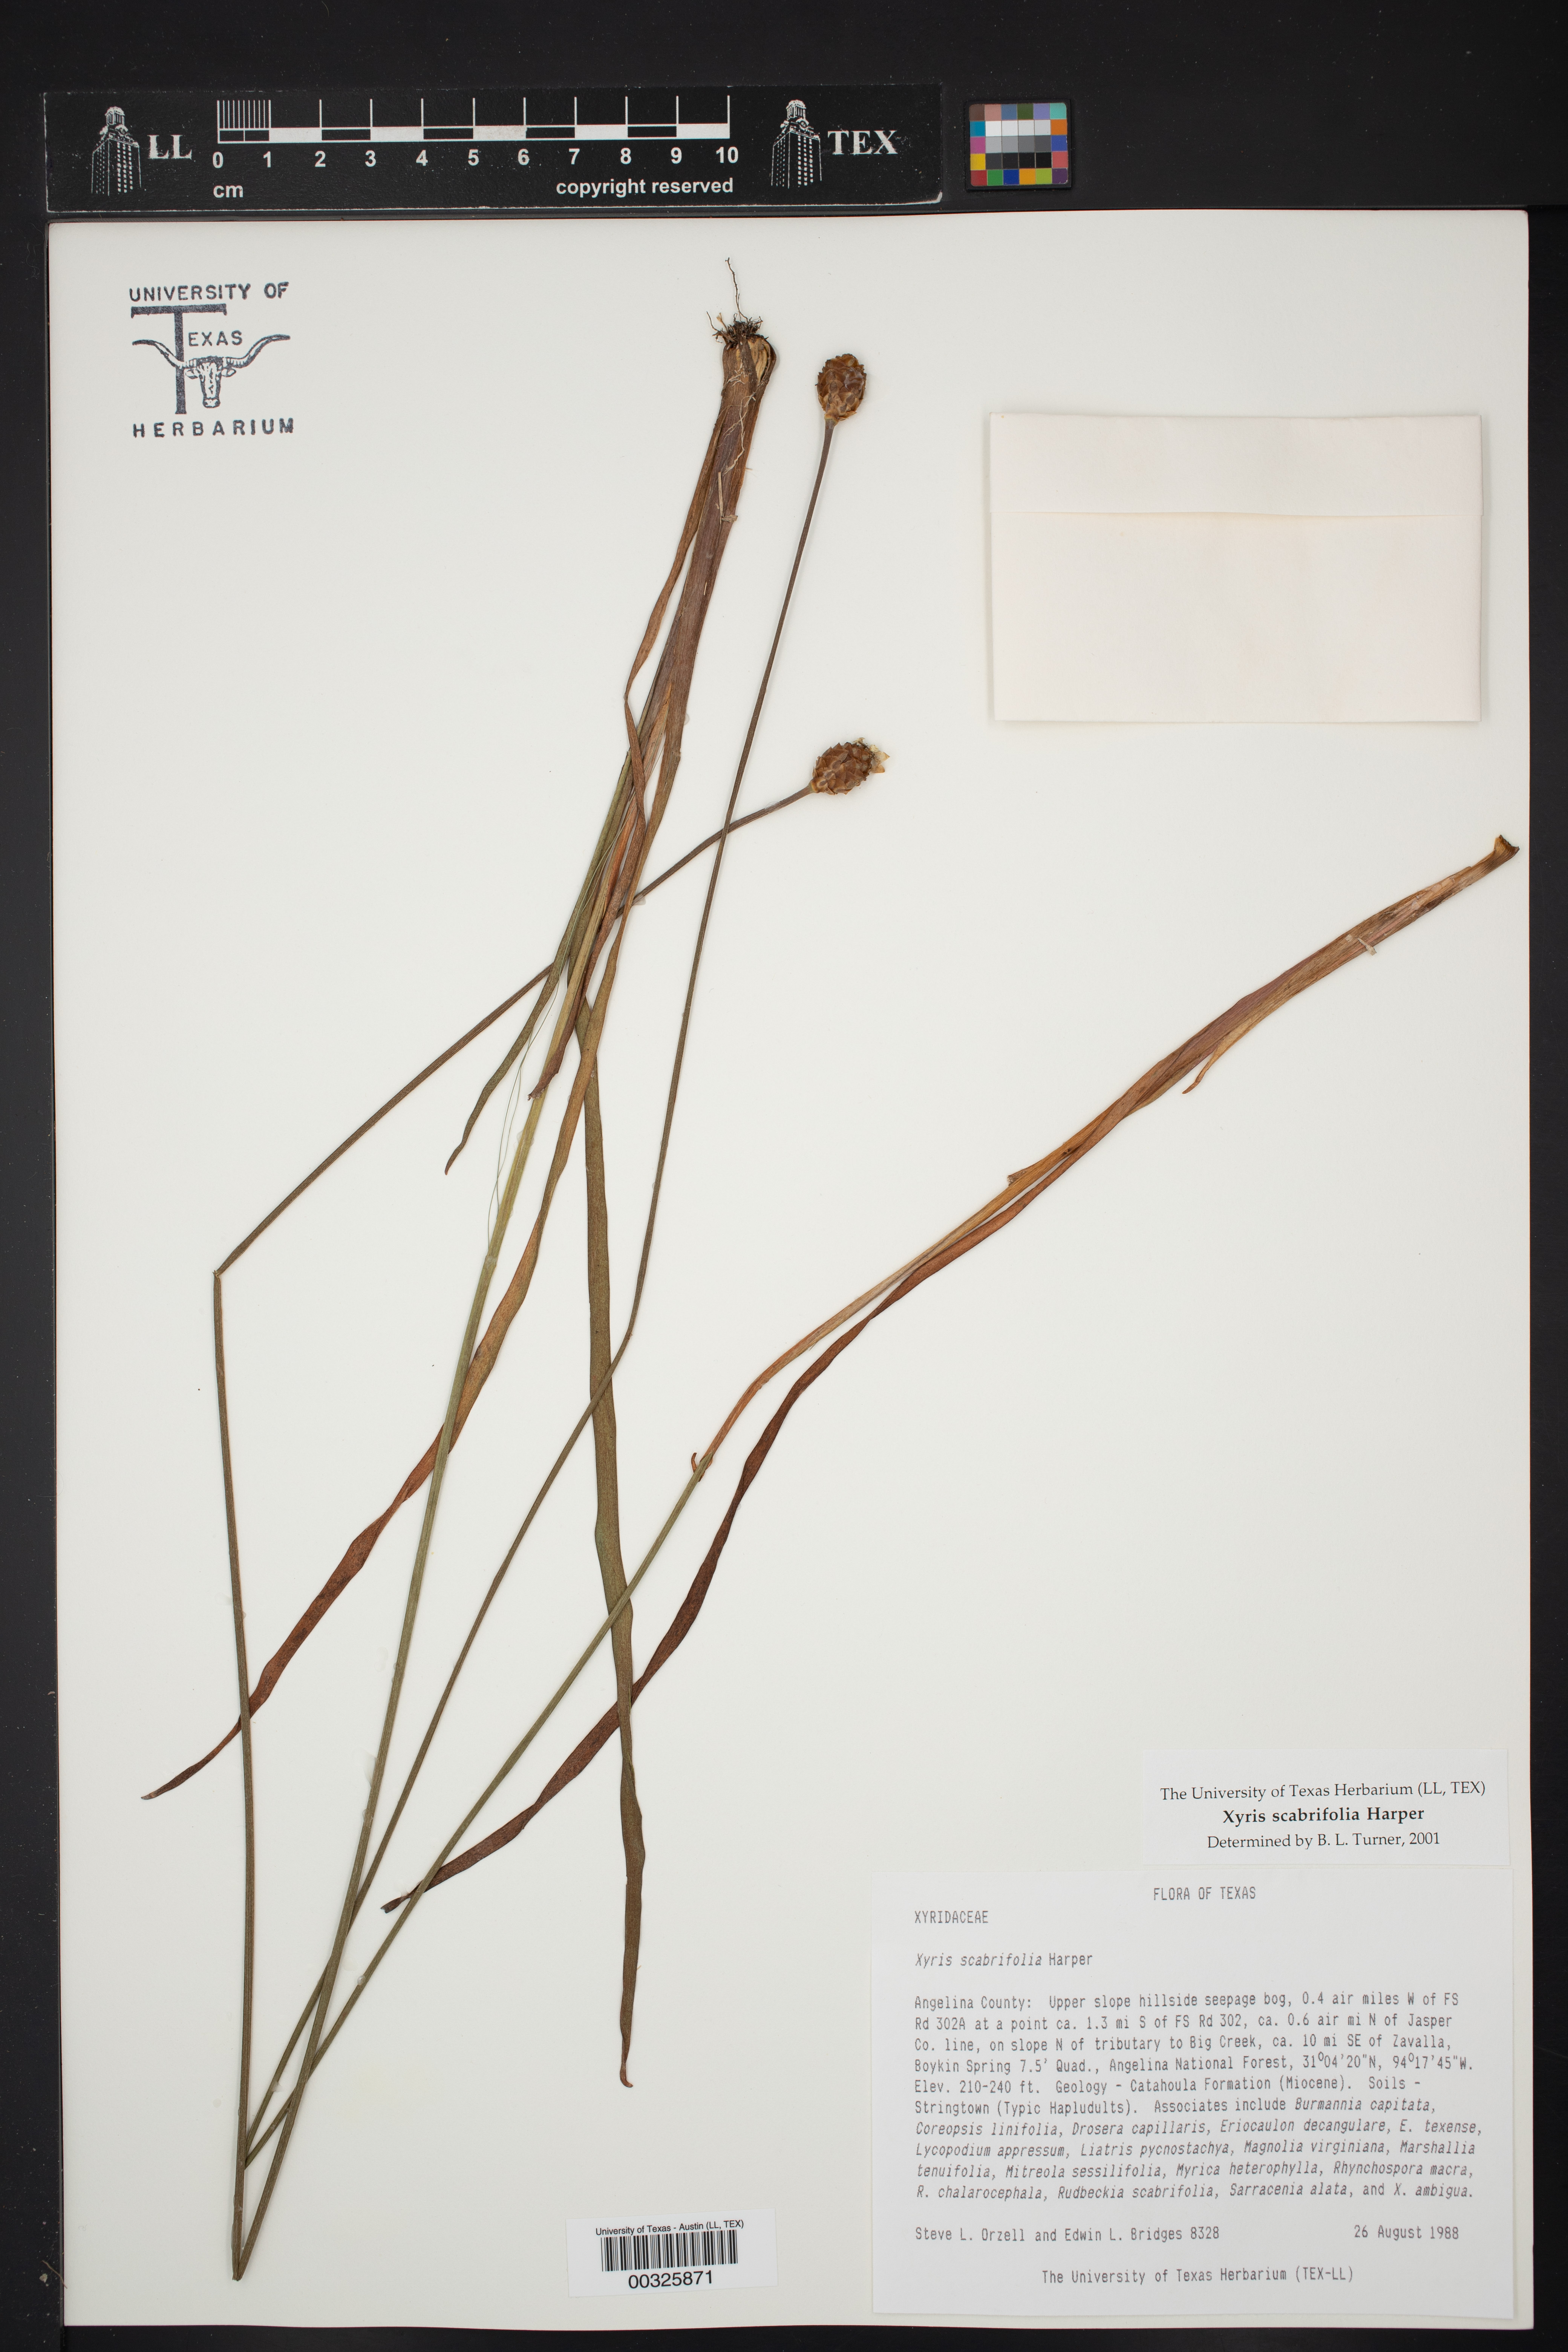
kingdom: Plantae
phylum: Tracheophyta
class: Liliopsida
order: Poales
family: Xyridaceae
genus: Xyris
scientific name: Xyris scabrifolia
